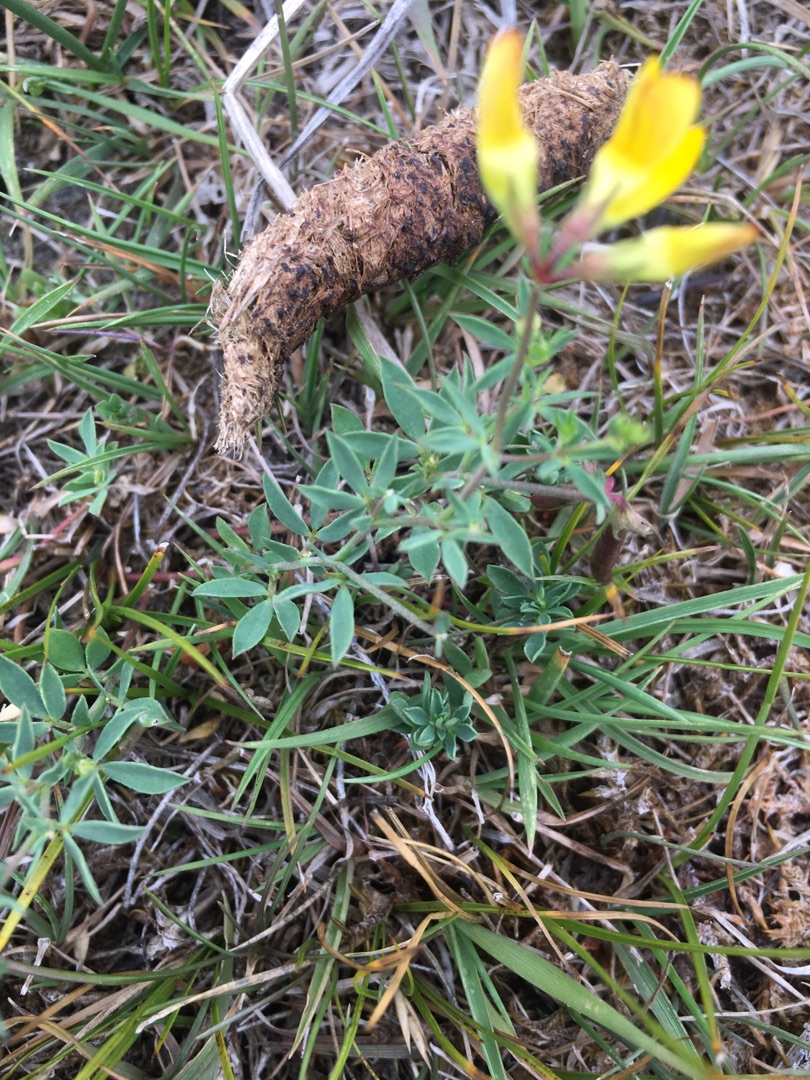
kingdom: Plantae
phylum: Tracheophyta
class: Magnoliopsida
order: Fabales
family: Fabaceae
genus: Lotus
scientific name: Lotus tenuis
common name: Smalbladet kællingetand
